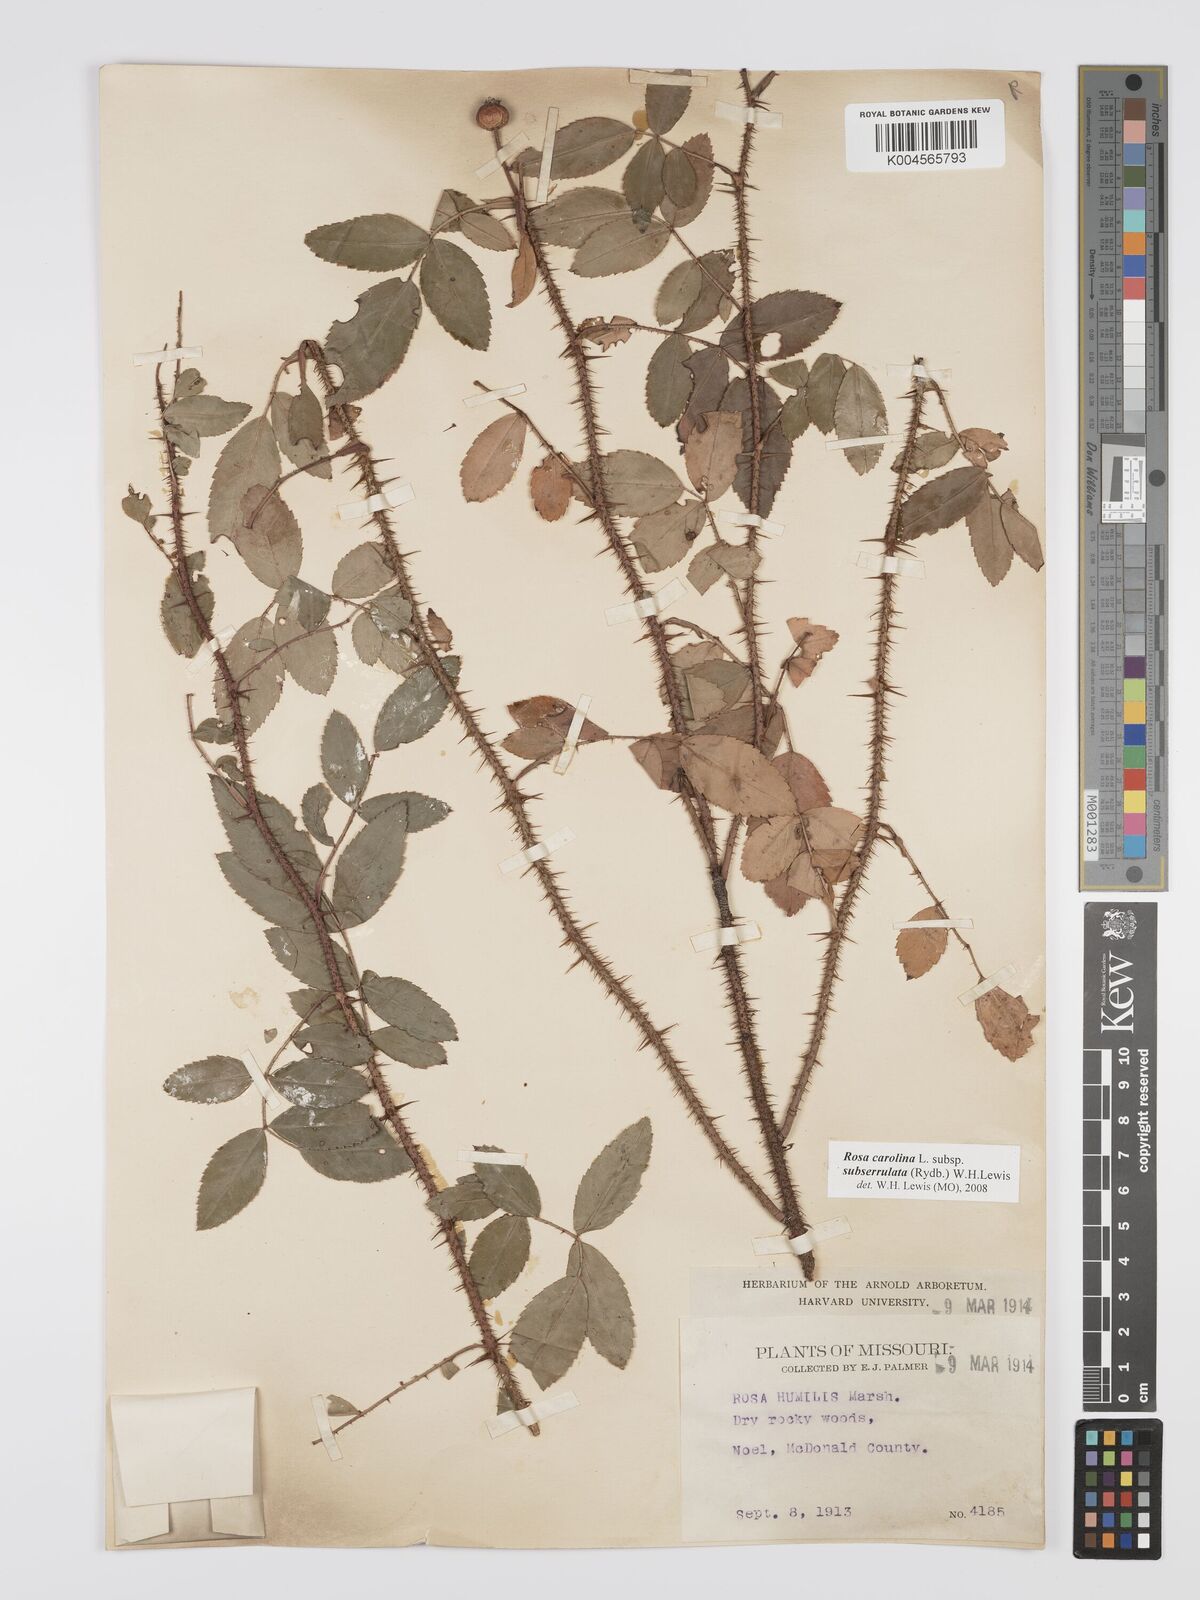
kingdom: Plantae
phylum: Tracheophyta
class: Magnoliopsida
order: Rosales
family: Rosaceae
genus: Rosa
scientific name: Rosa carolina
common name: Pasture rose
